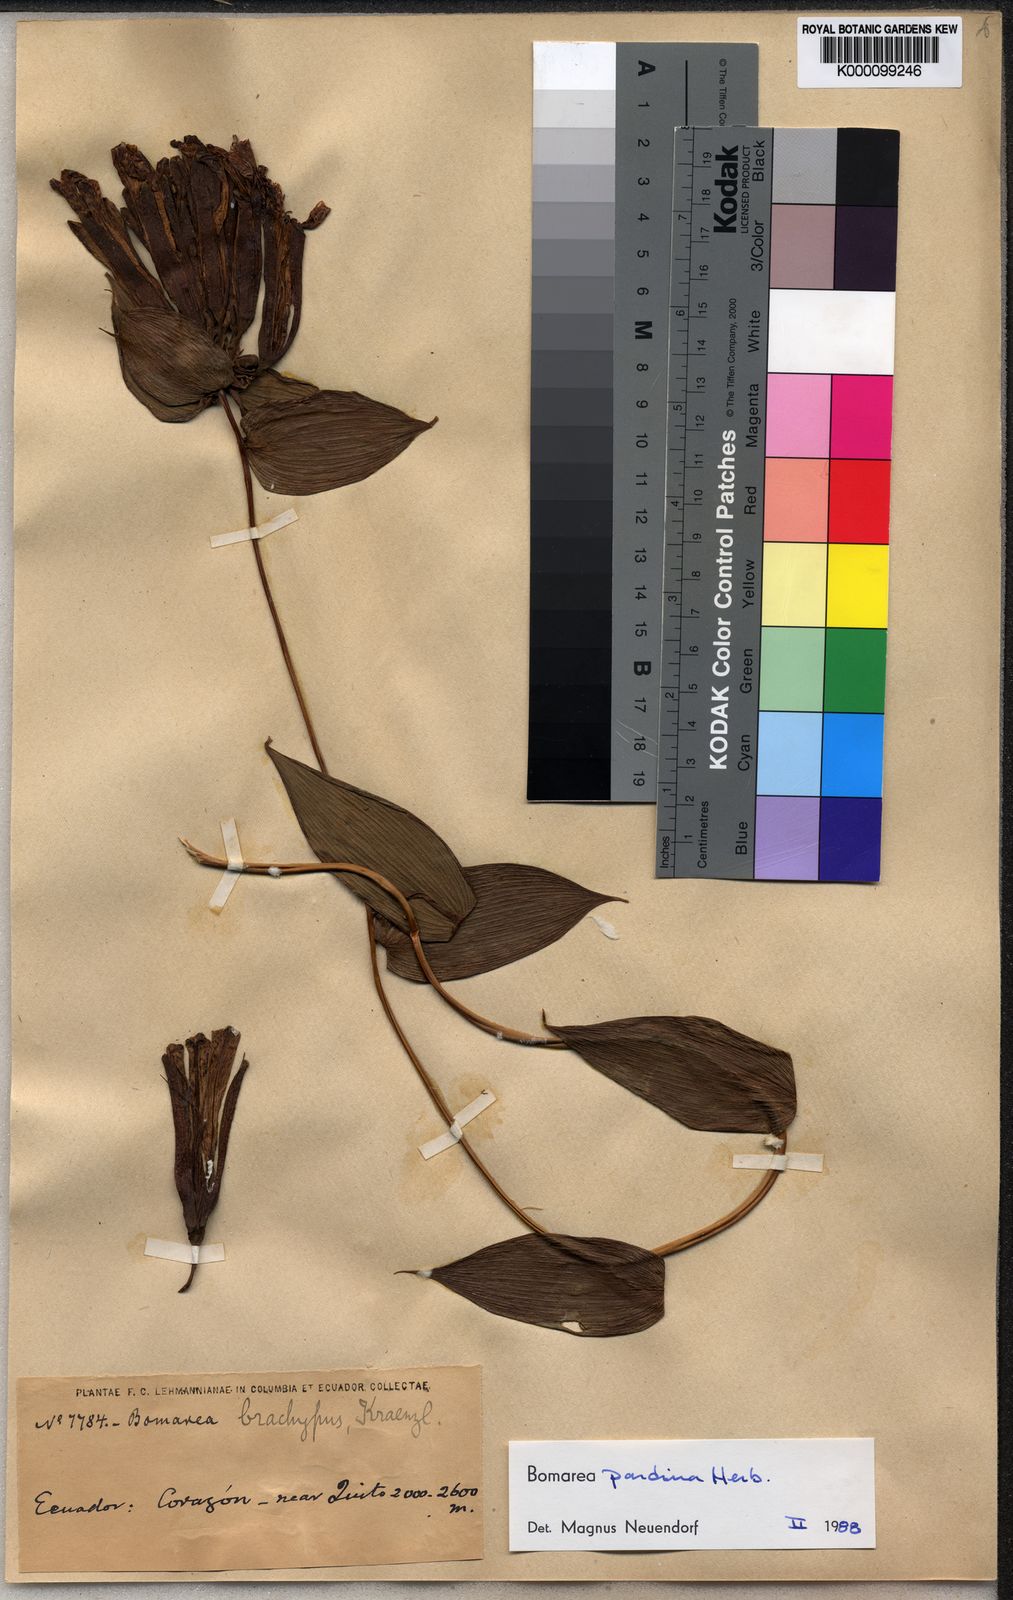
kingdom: Plantae
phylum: Tracheophyta
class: Liliopsida
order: Liliales
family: Alstroemeriaceae
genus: Bomarea
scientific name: Bomarea pardina
